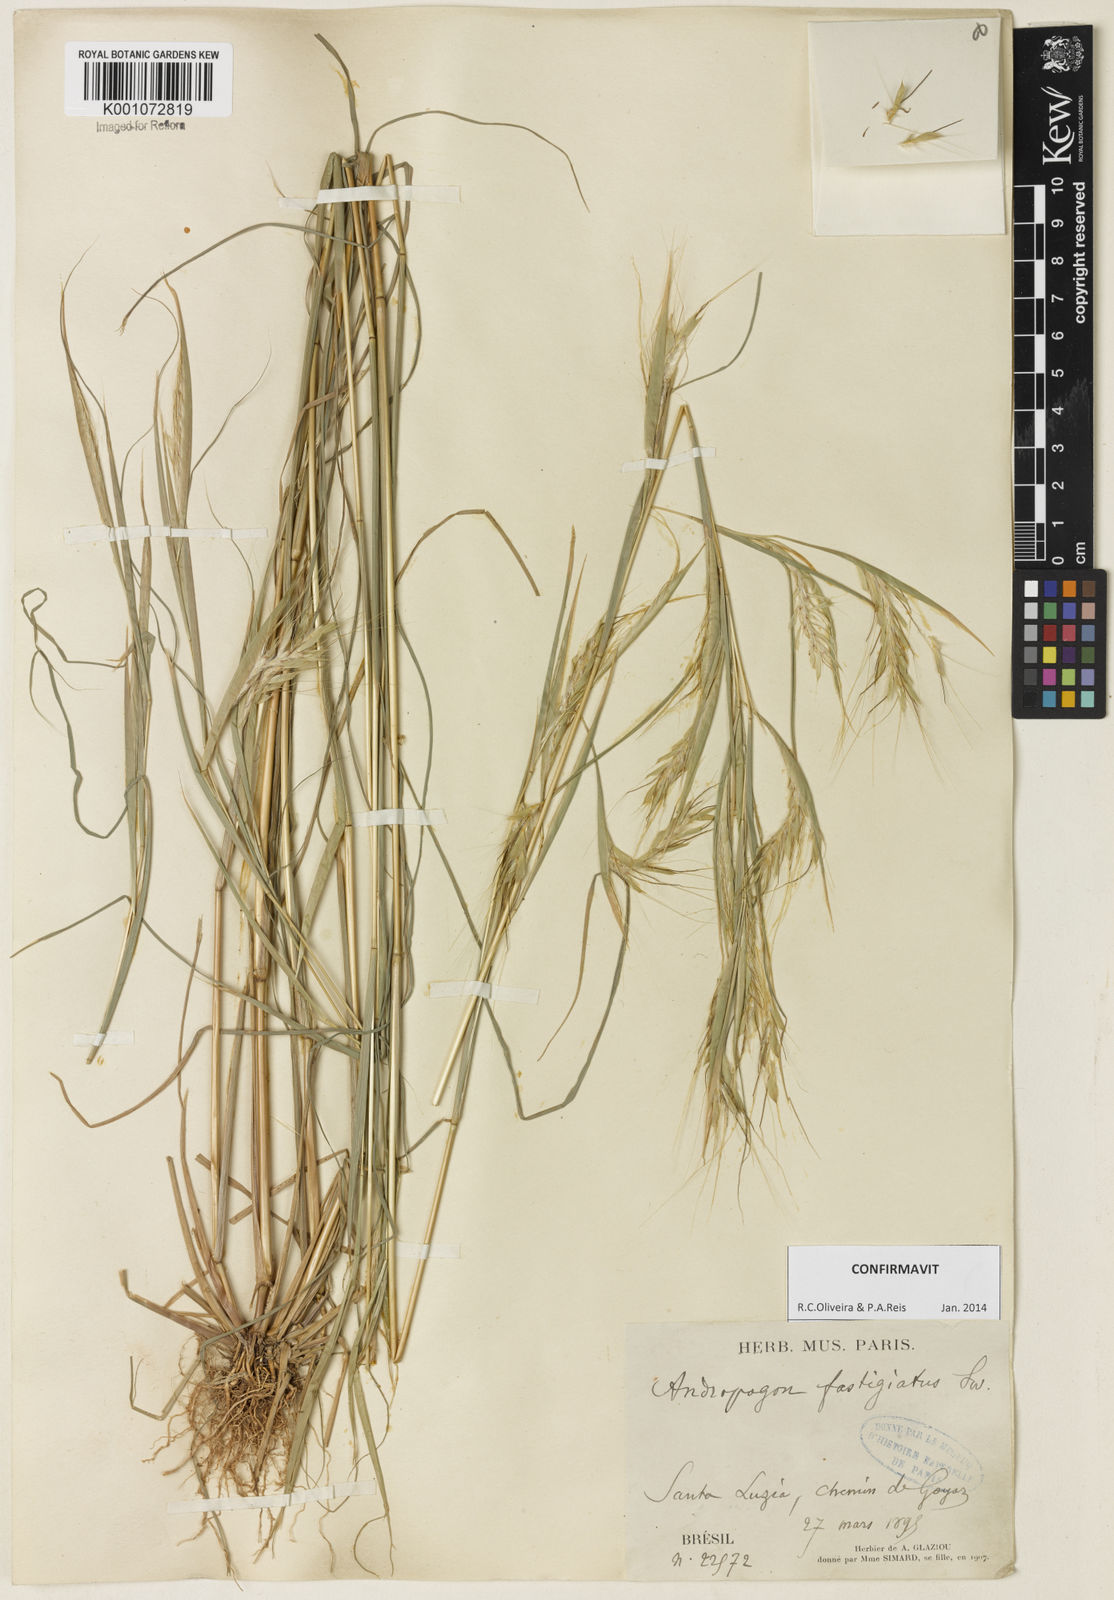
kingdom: Plantae
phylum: Tracheophyta
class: Liliopsida
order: Poales
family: Poaceae
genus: Diectomis
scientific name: Diectomis fastigiata
